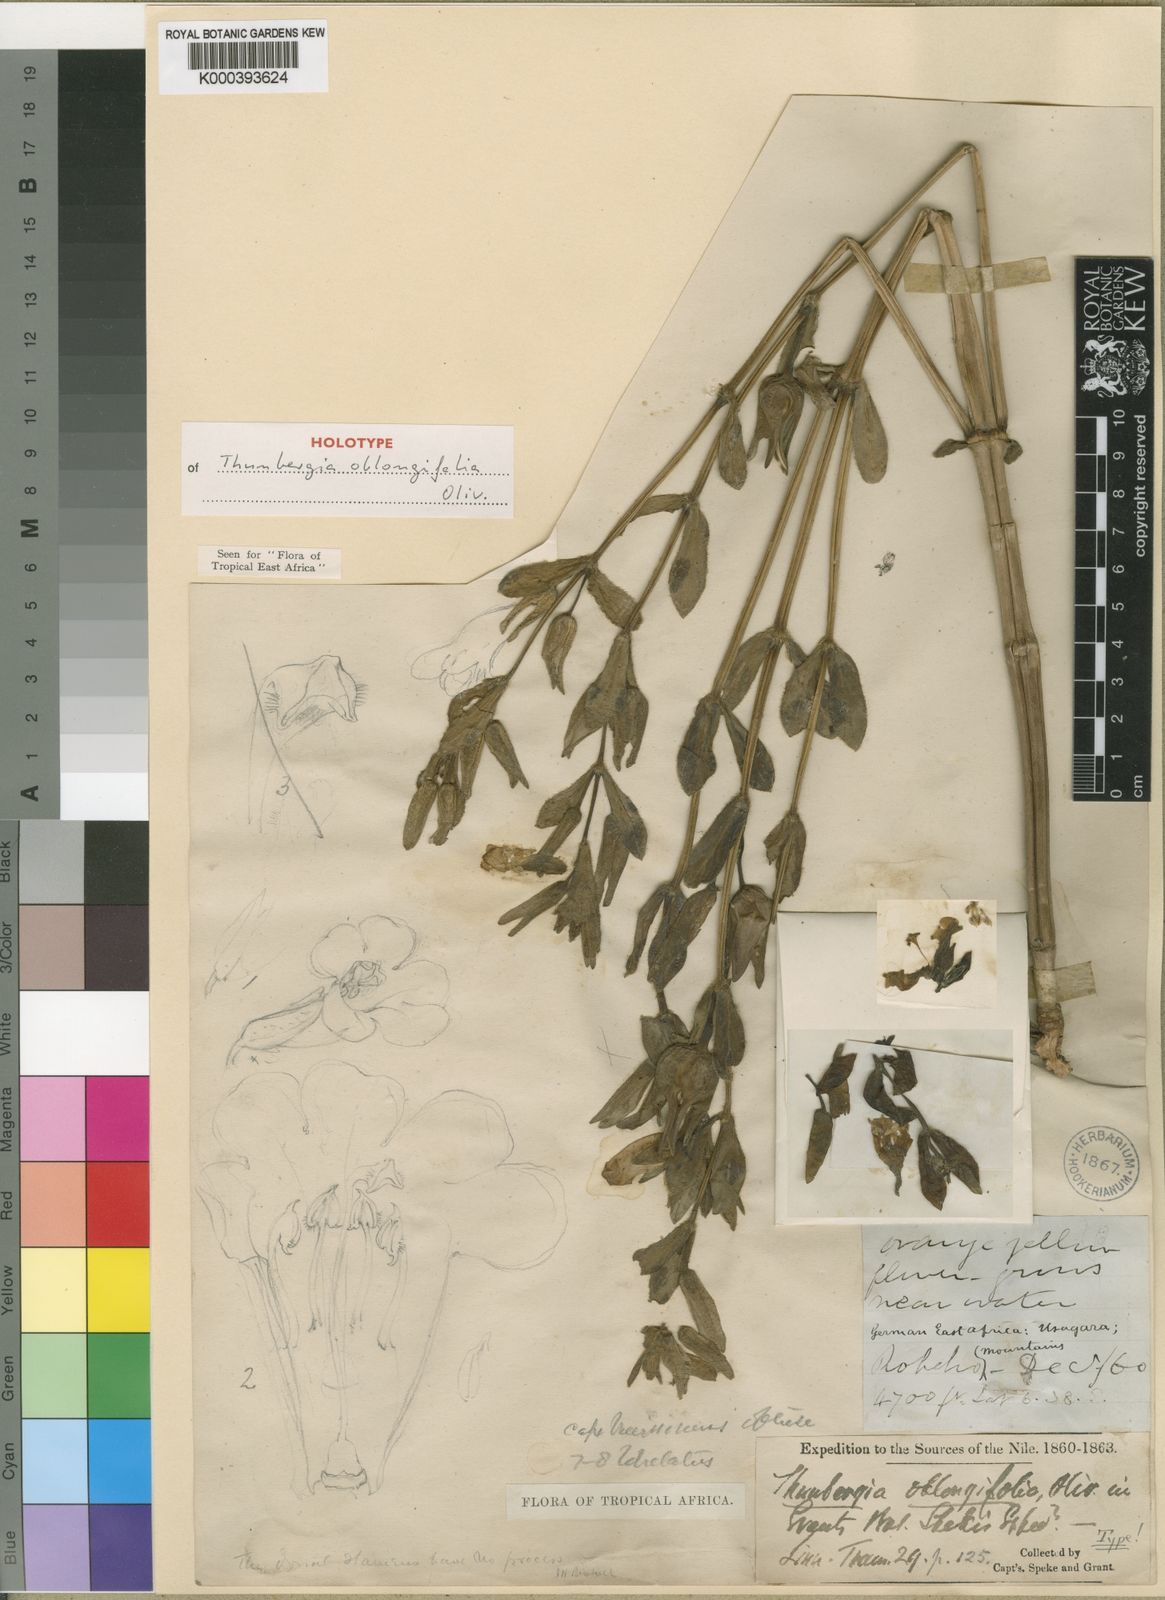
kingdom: Plantae
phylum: Tracheophyta
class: Magnoliopsida
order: Lamiales
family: Acanthaceae
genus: Thunbergia
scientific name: Thunbergia oblongifolia
